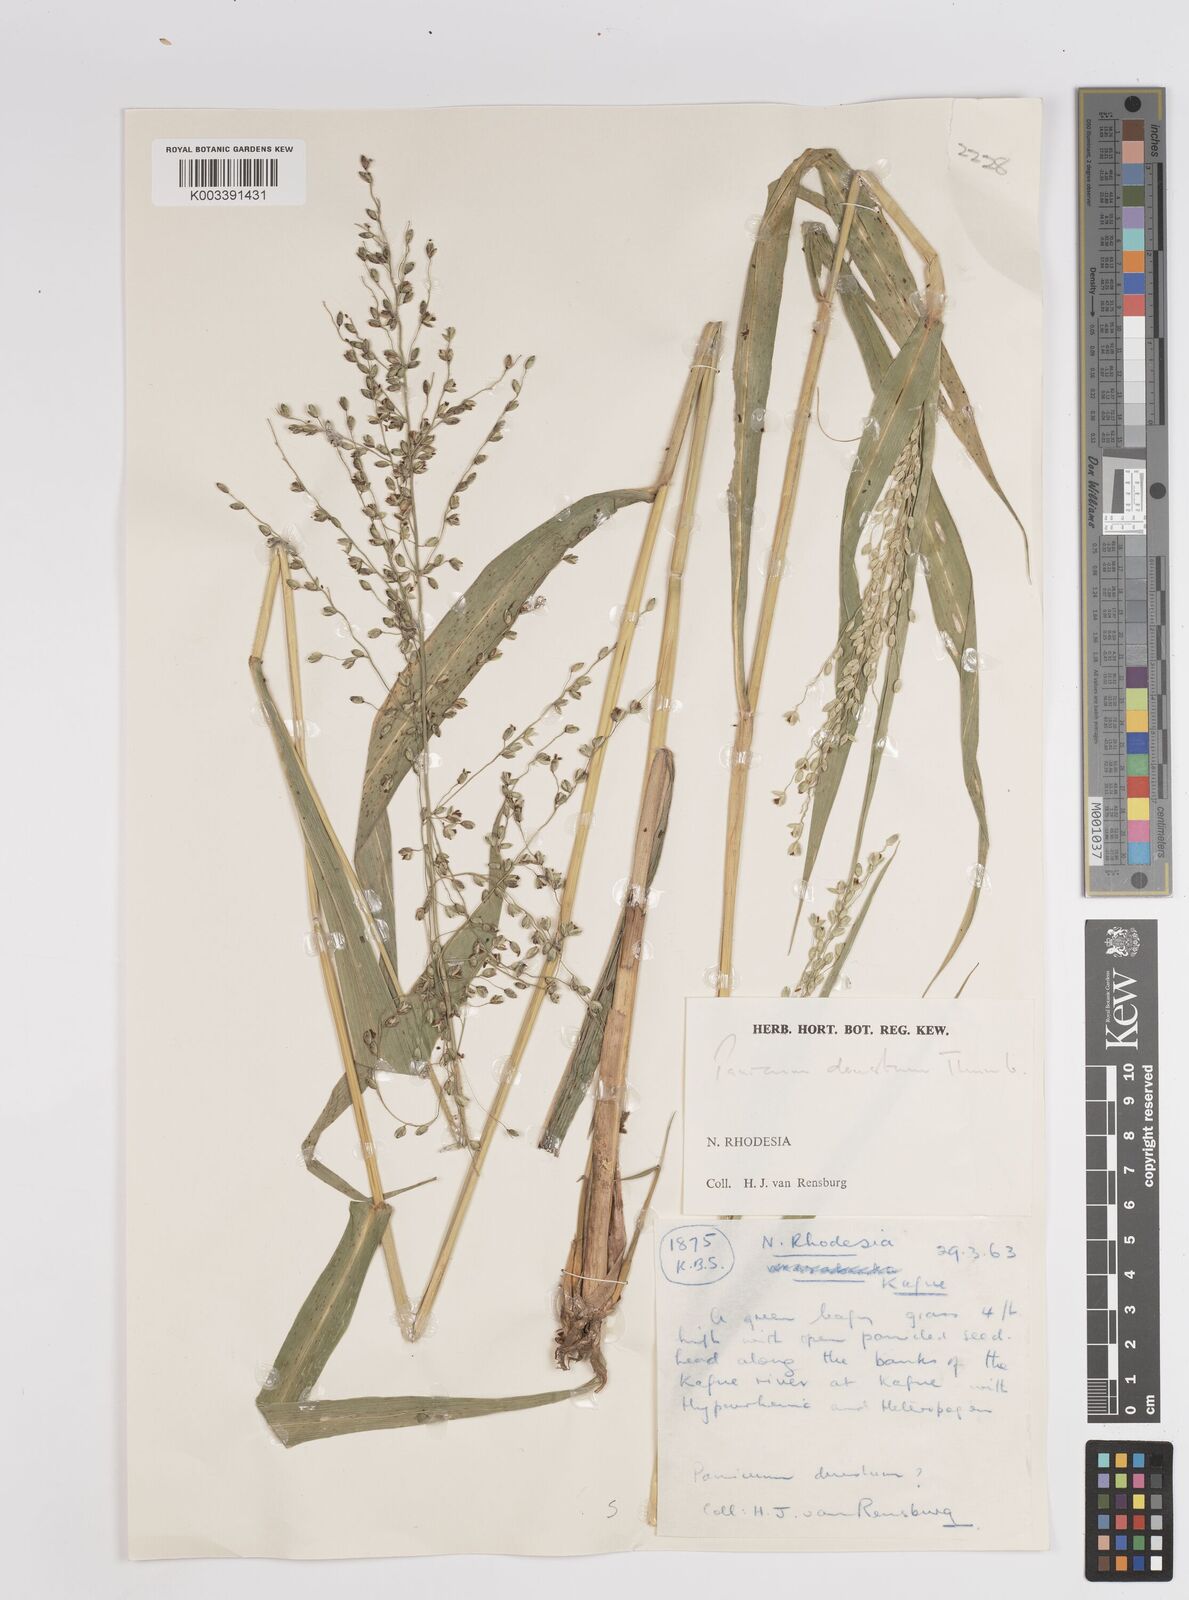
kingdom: Plantae
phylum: Tracheophyta
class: Liliopsida
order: Poales
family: Poaceae
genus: Panicum
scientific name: Panicum deustum
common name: Reed panicum
